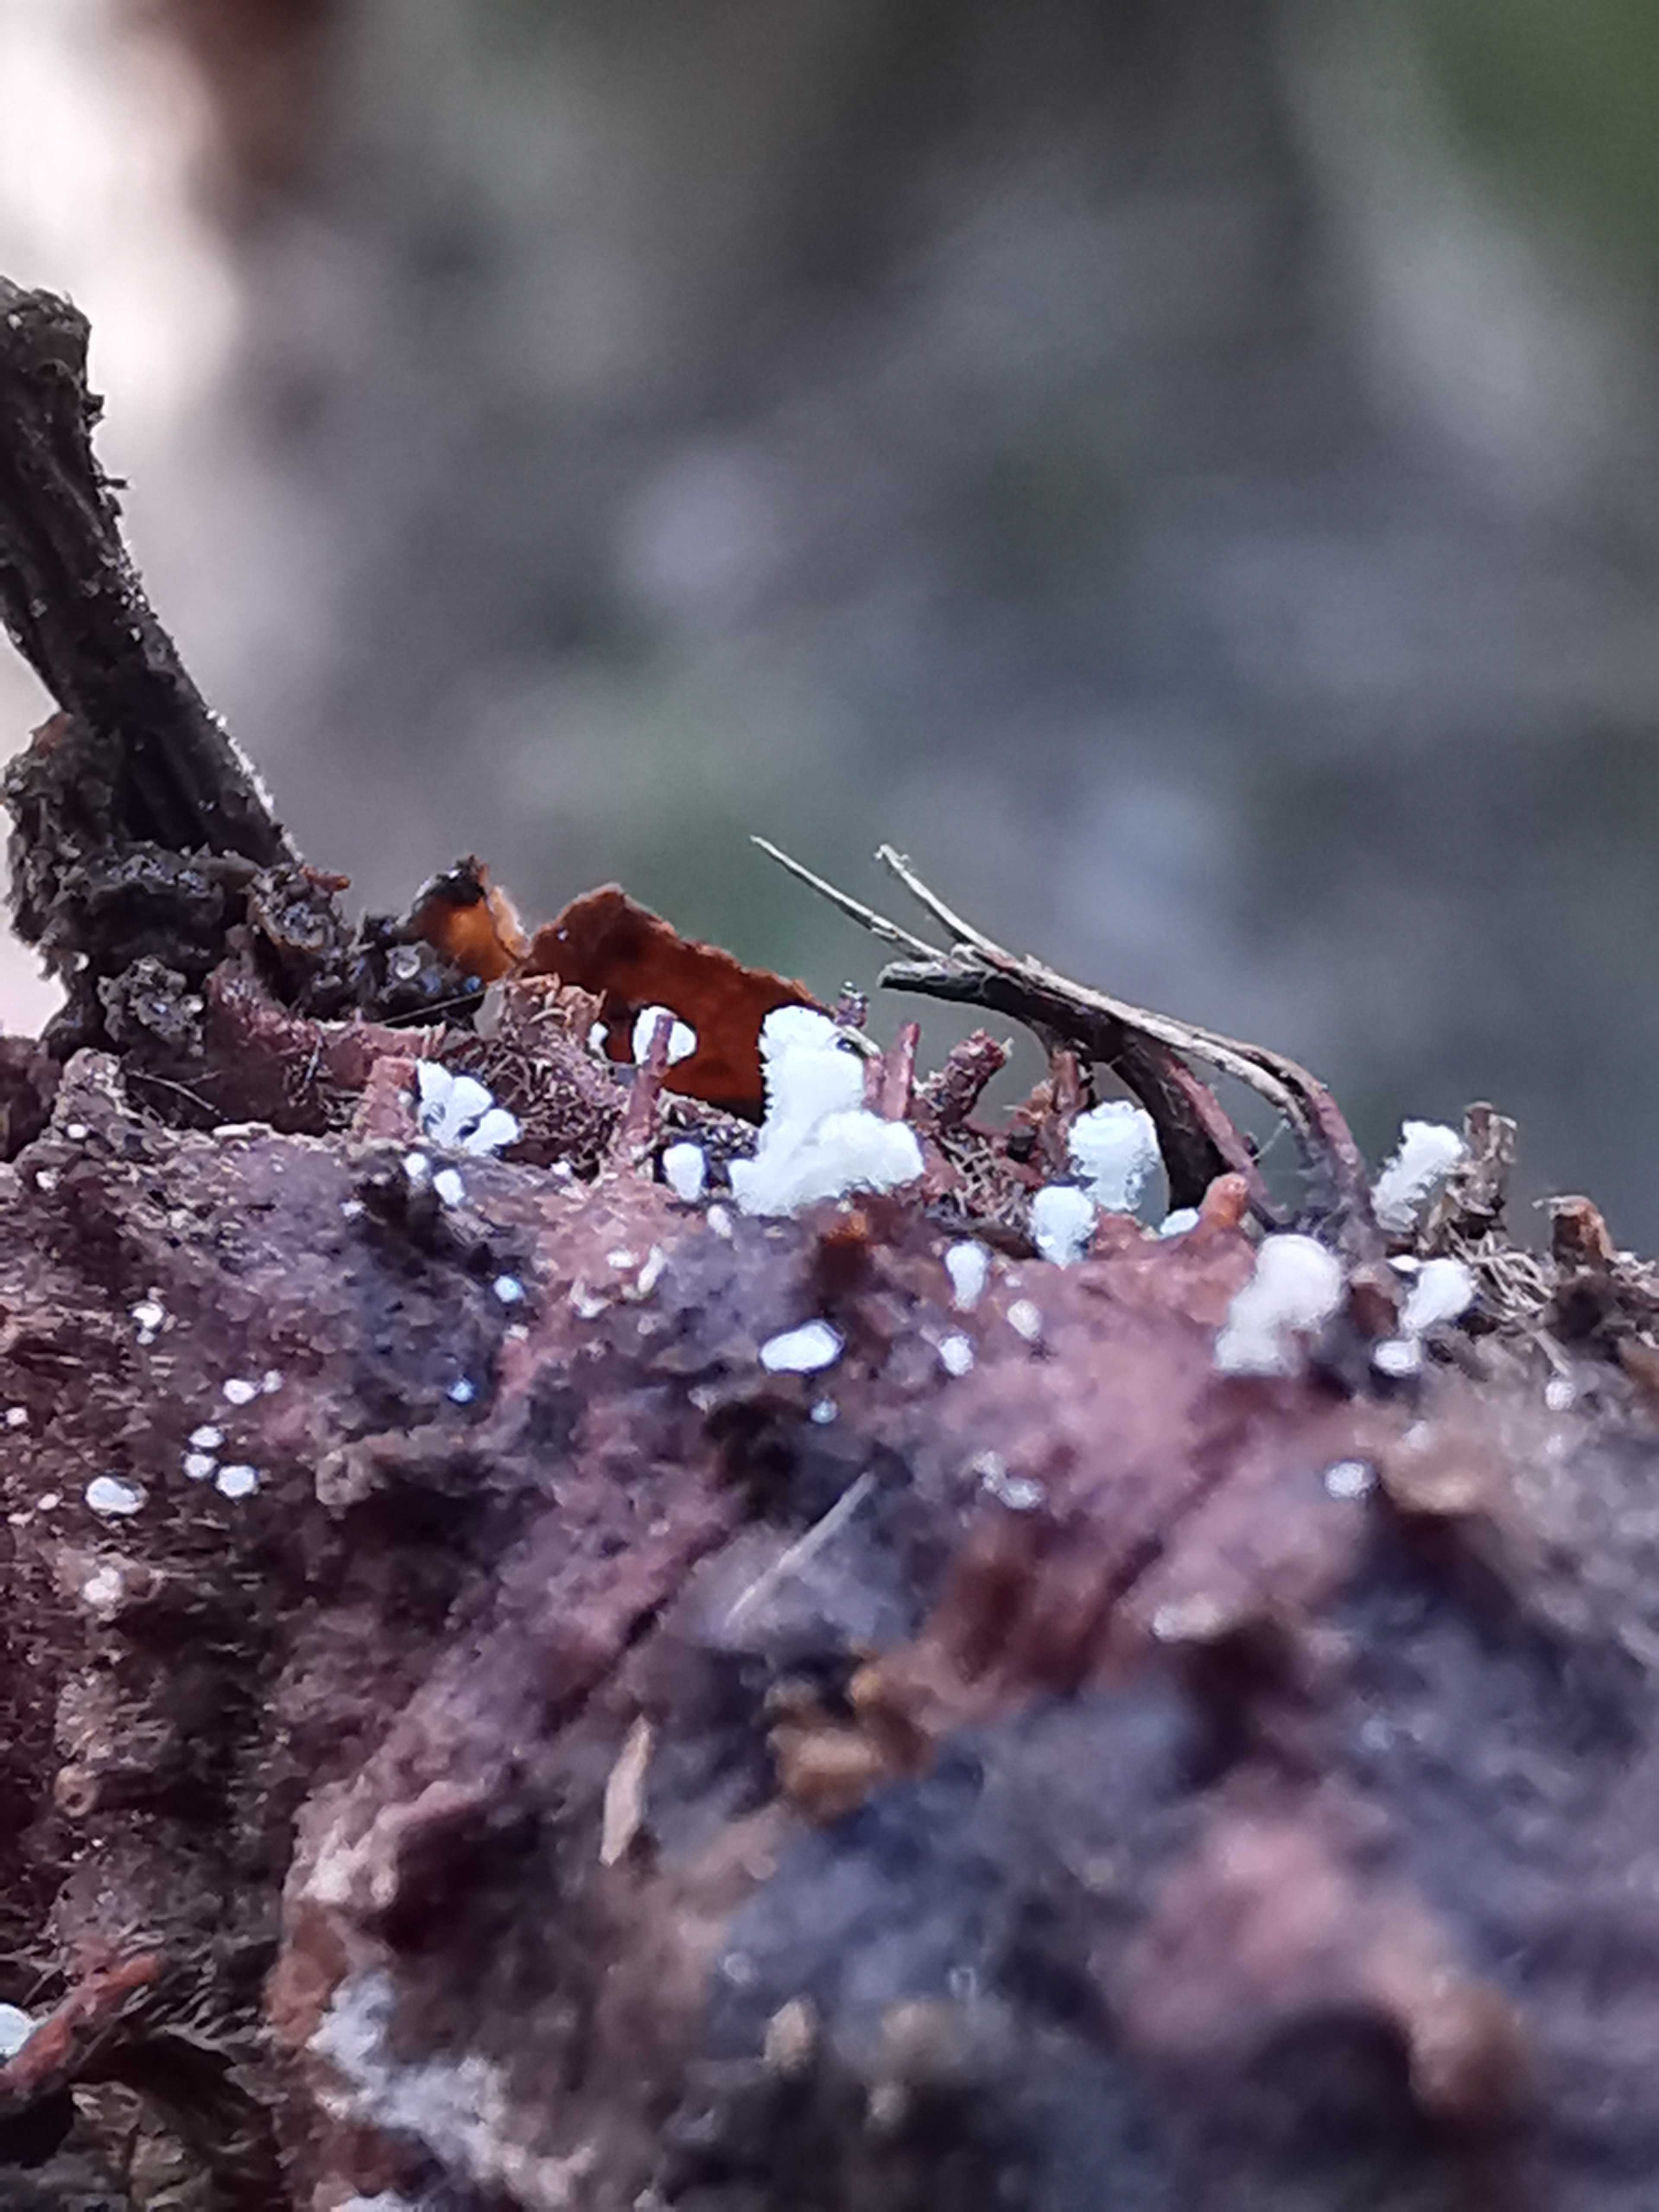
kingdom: Fungi
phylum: Ascomycota
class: Leotiomycetes
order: Helotiales
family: Lachnaceae
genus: Lachnum
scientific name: Lachnum virgineum
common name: jomfru-frynseskive
